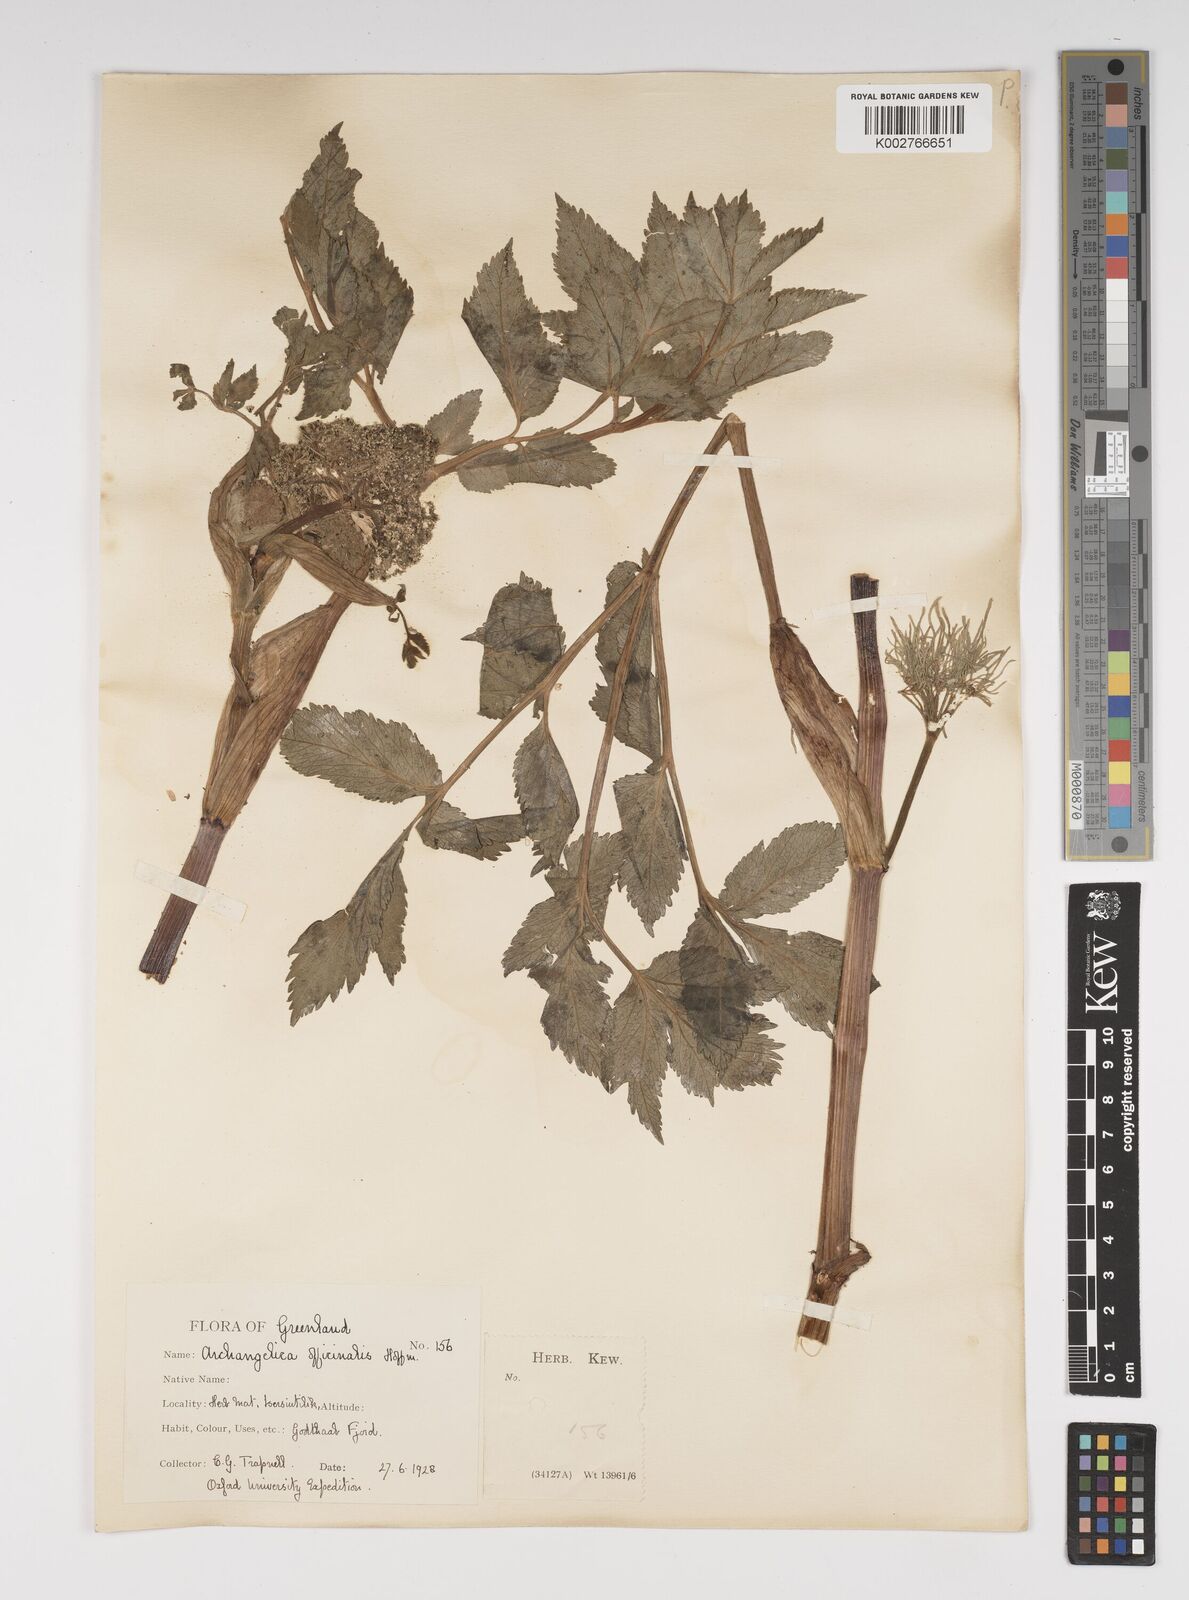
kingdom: Plantae
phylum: Tracheophyta
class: Magnoliopsida
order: Apiales
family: Apiaceae
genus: Angelica
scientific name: Angelica archangelica
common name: Garden angelica
